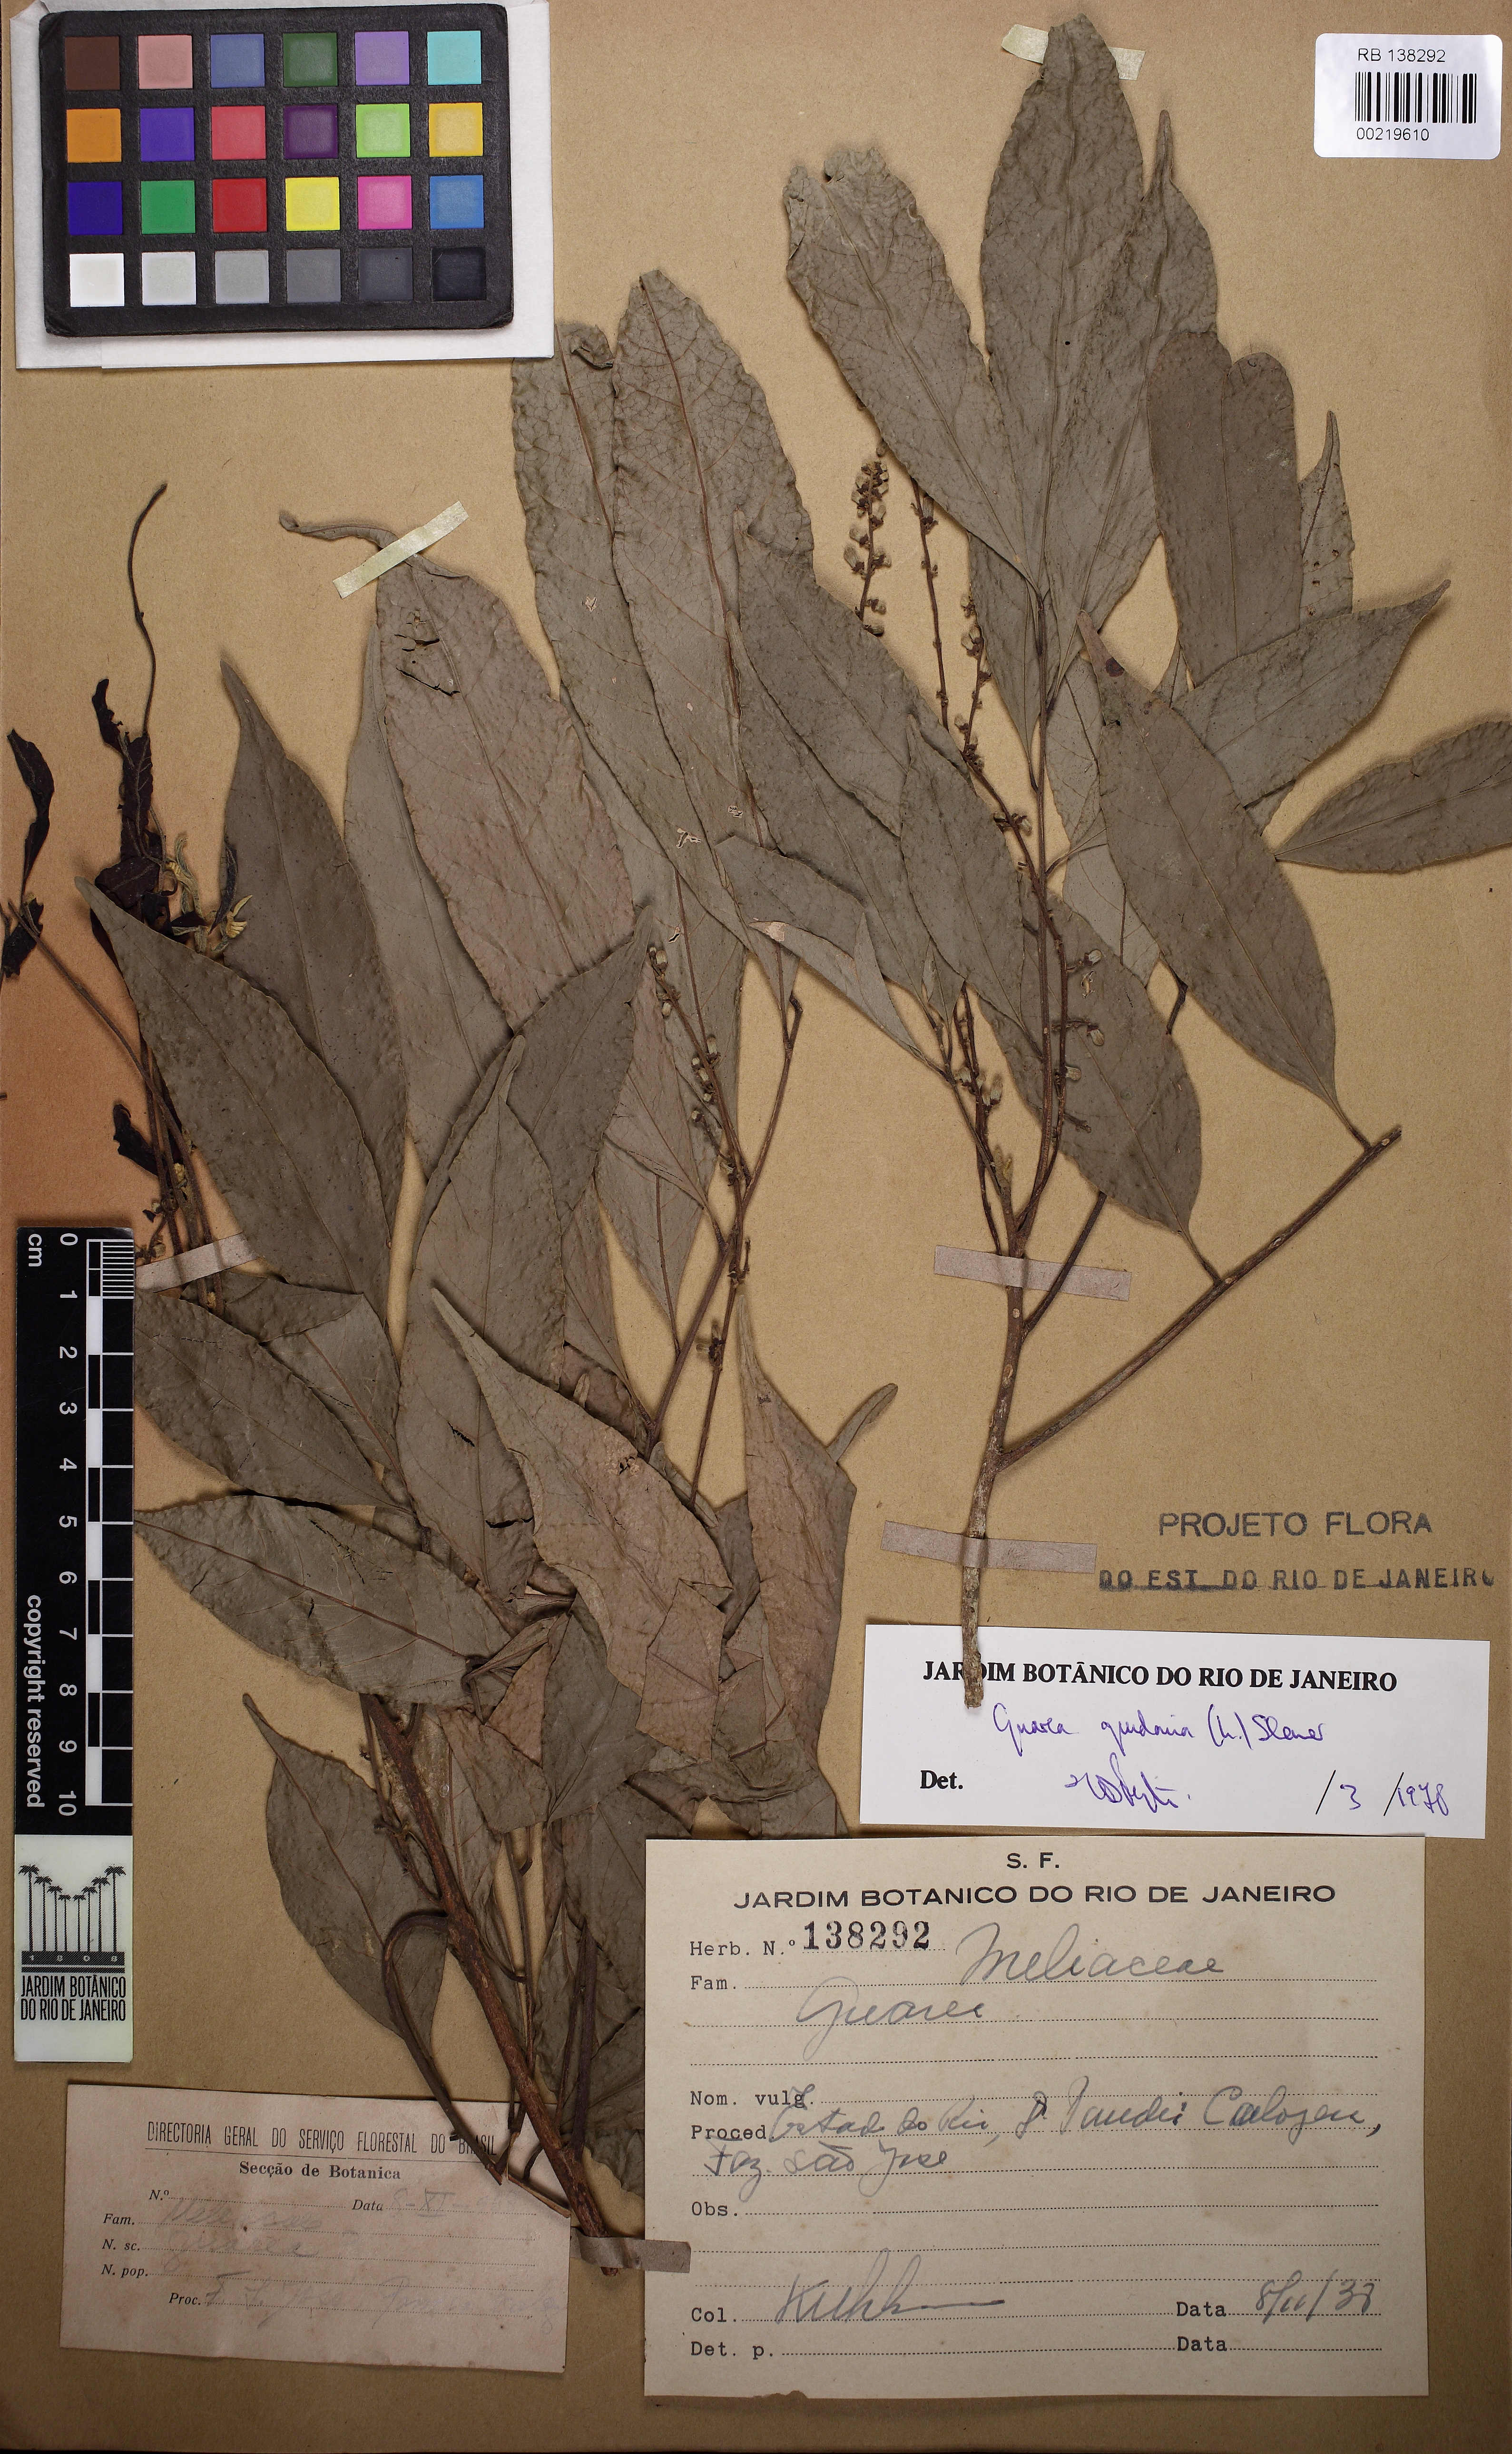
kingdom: Plantae
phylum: Tracheophyta
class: Magnoliopsida
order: Sapindales
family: Meliaceae
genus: Guarea
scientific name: Guarea guidonia
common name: American muskwood
